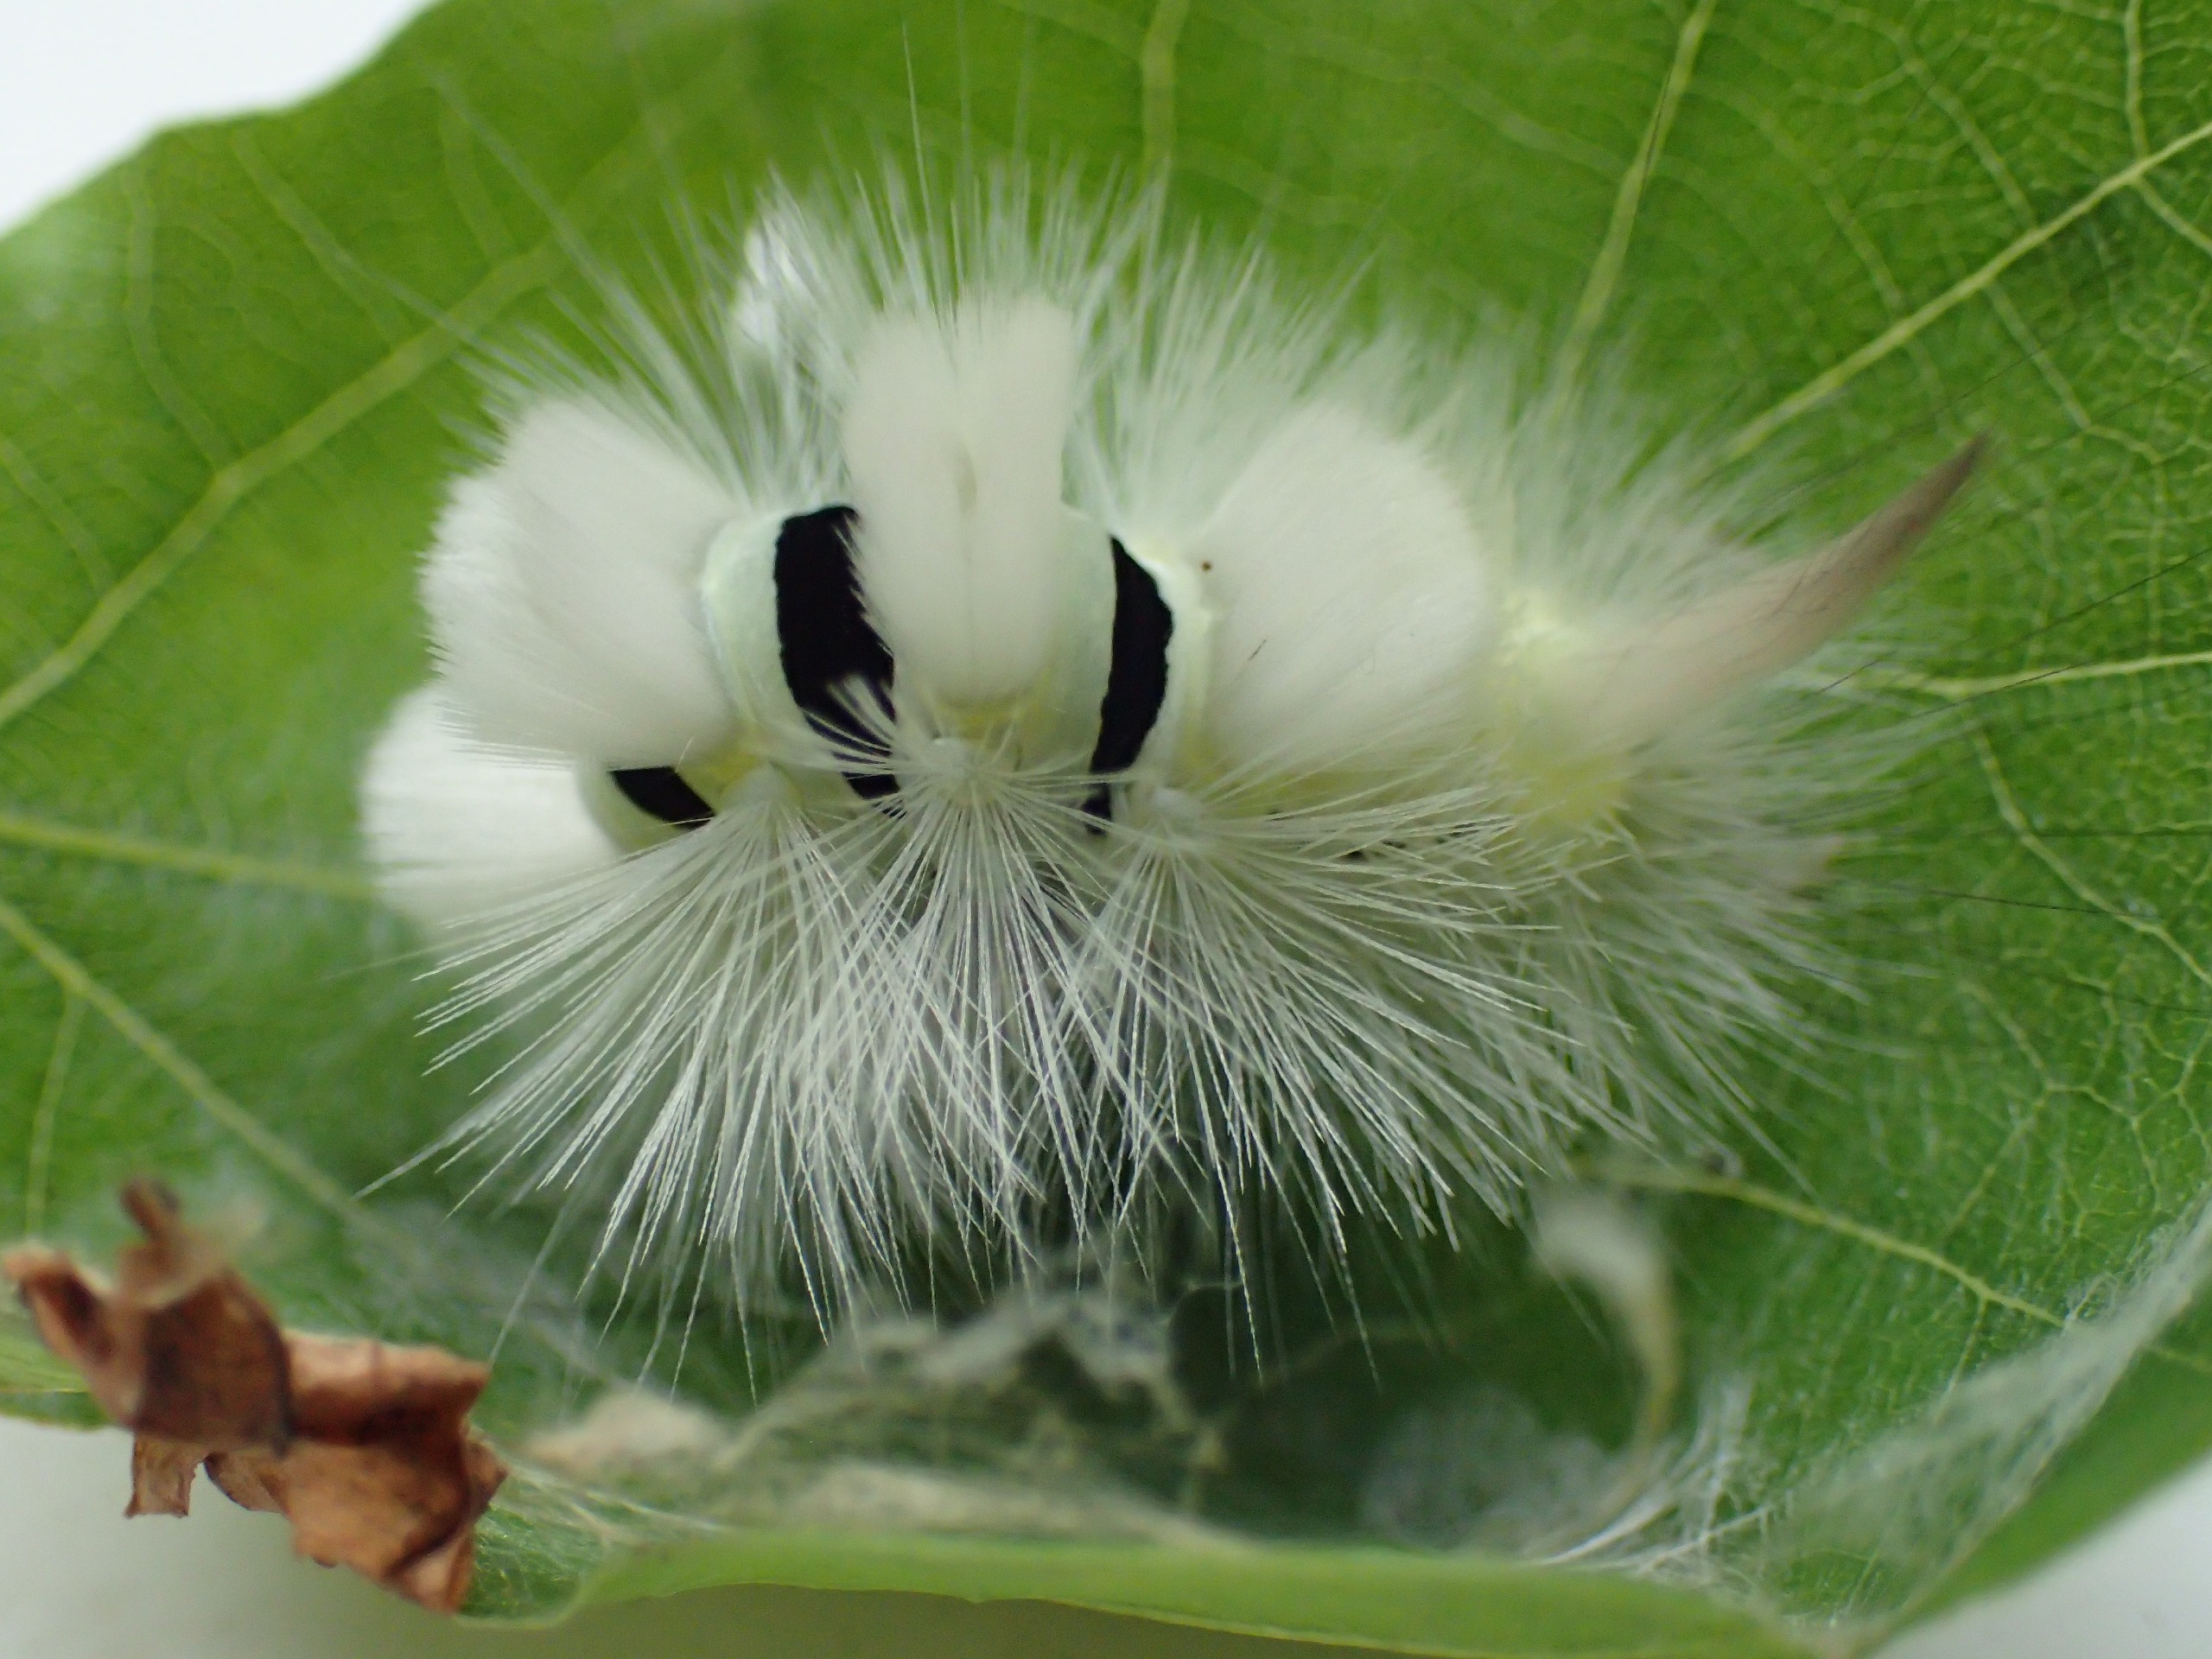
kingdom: Animalia
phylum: Arthropoda
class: Insecta
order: Lepidoptera
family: Erebidae
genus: Calliteara
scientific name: Calliteara pudibunda
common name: Bøgenonne
